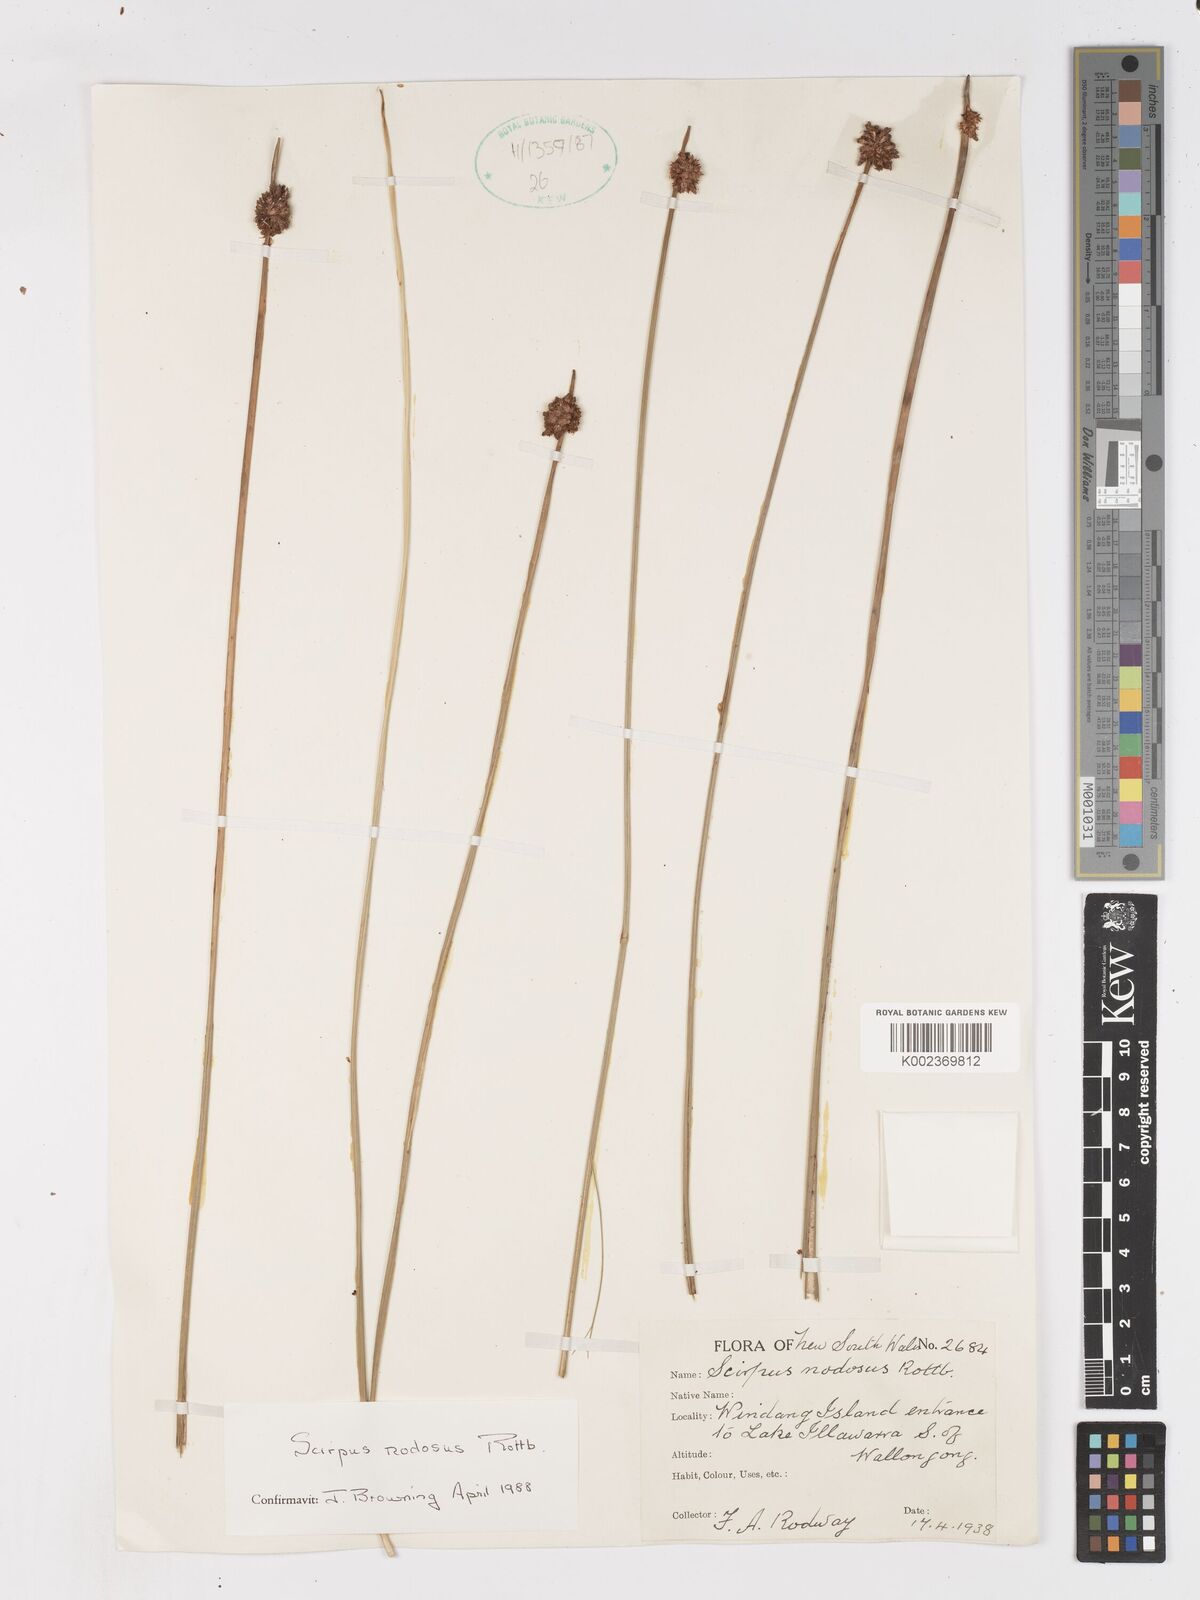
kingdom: Plantae
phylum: Tracheophyta
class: Liliopsida
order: Poales
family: Cyperaceae
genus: Ficinia
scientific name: Ficinia nodosa
